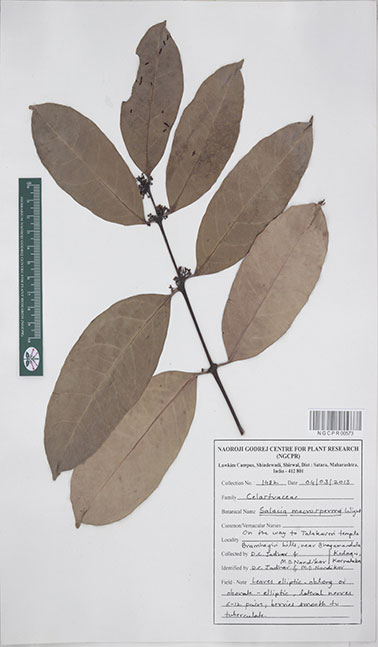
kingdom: Plantae
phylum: Tracheophyta
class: Magnoliopsida
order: Celastrales
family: Celastraceae
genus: Salacia
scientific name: Salacia macrosperma
